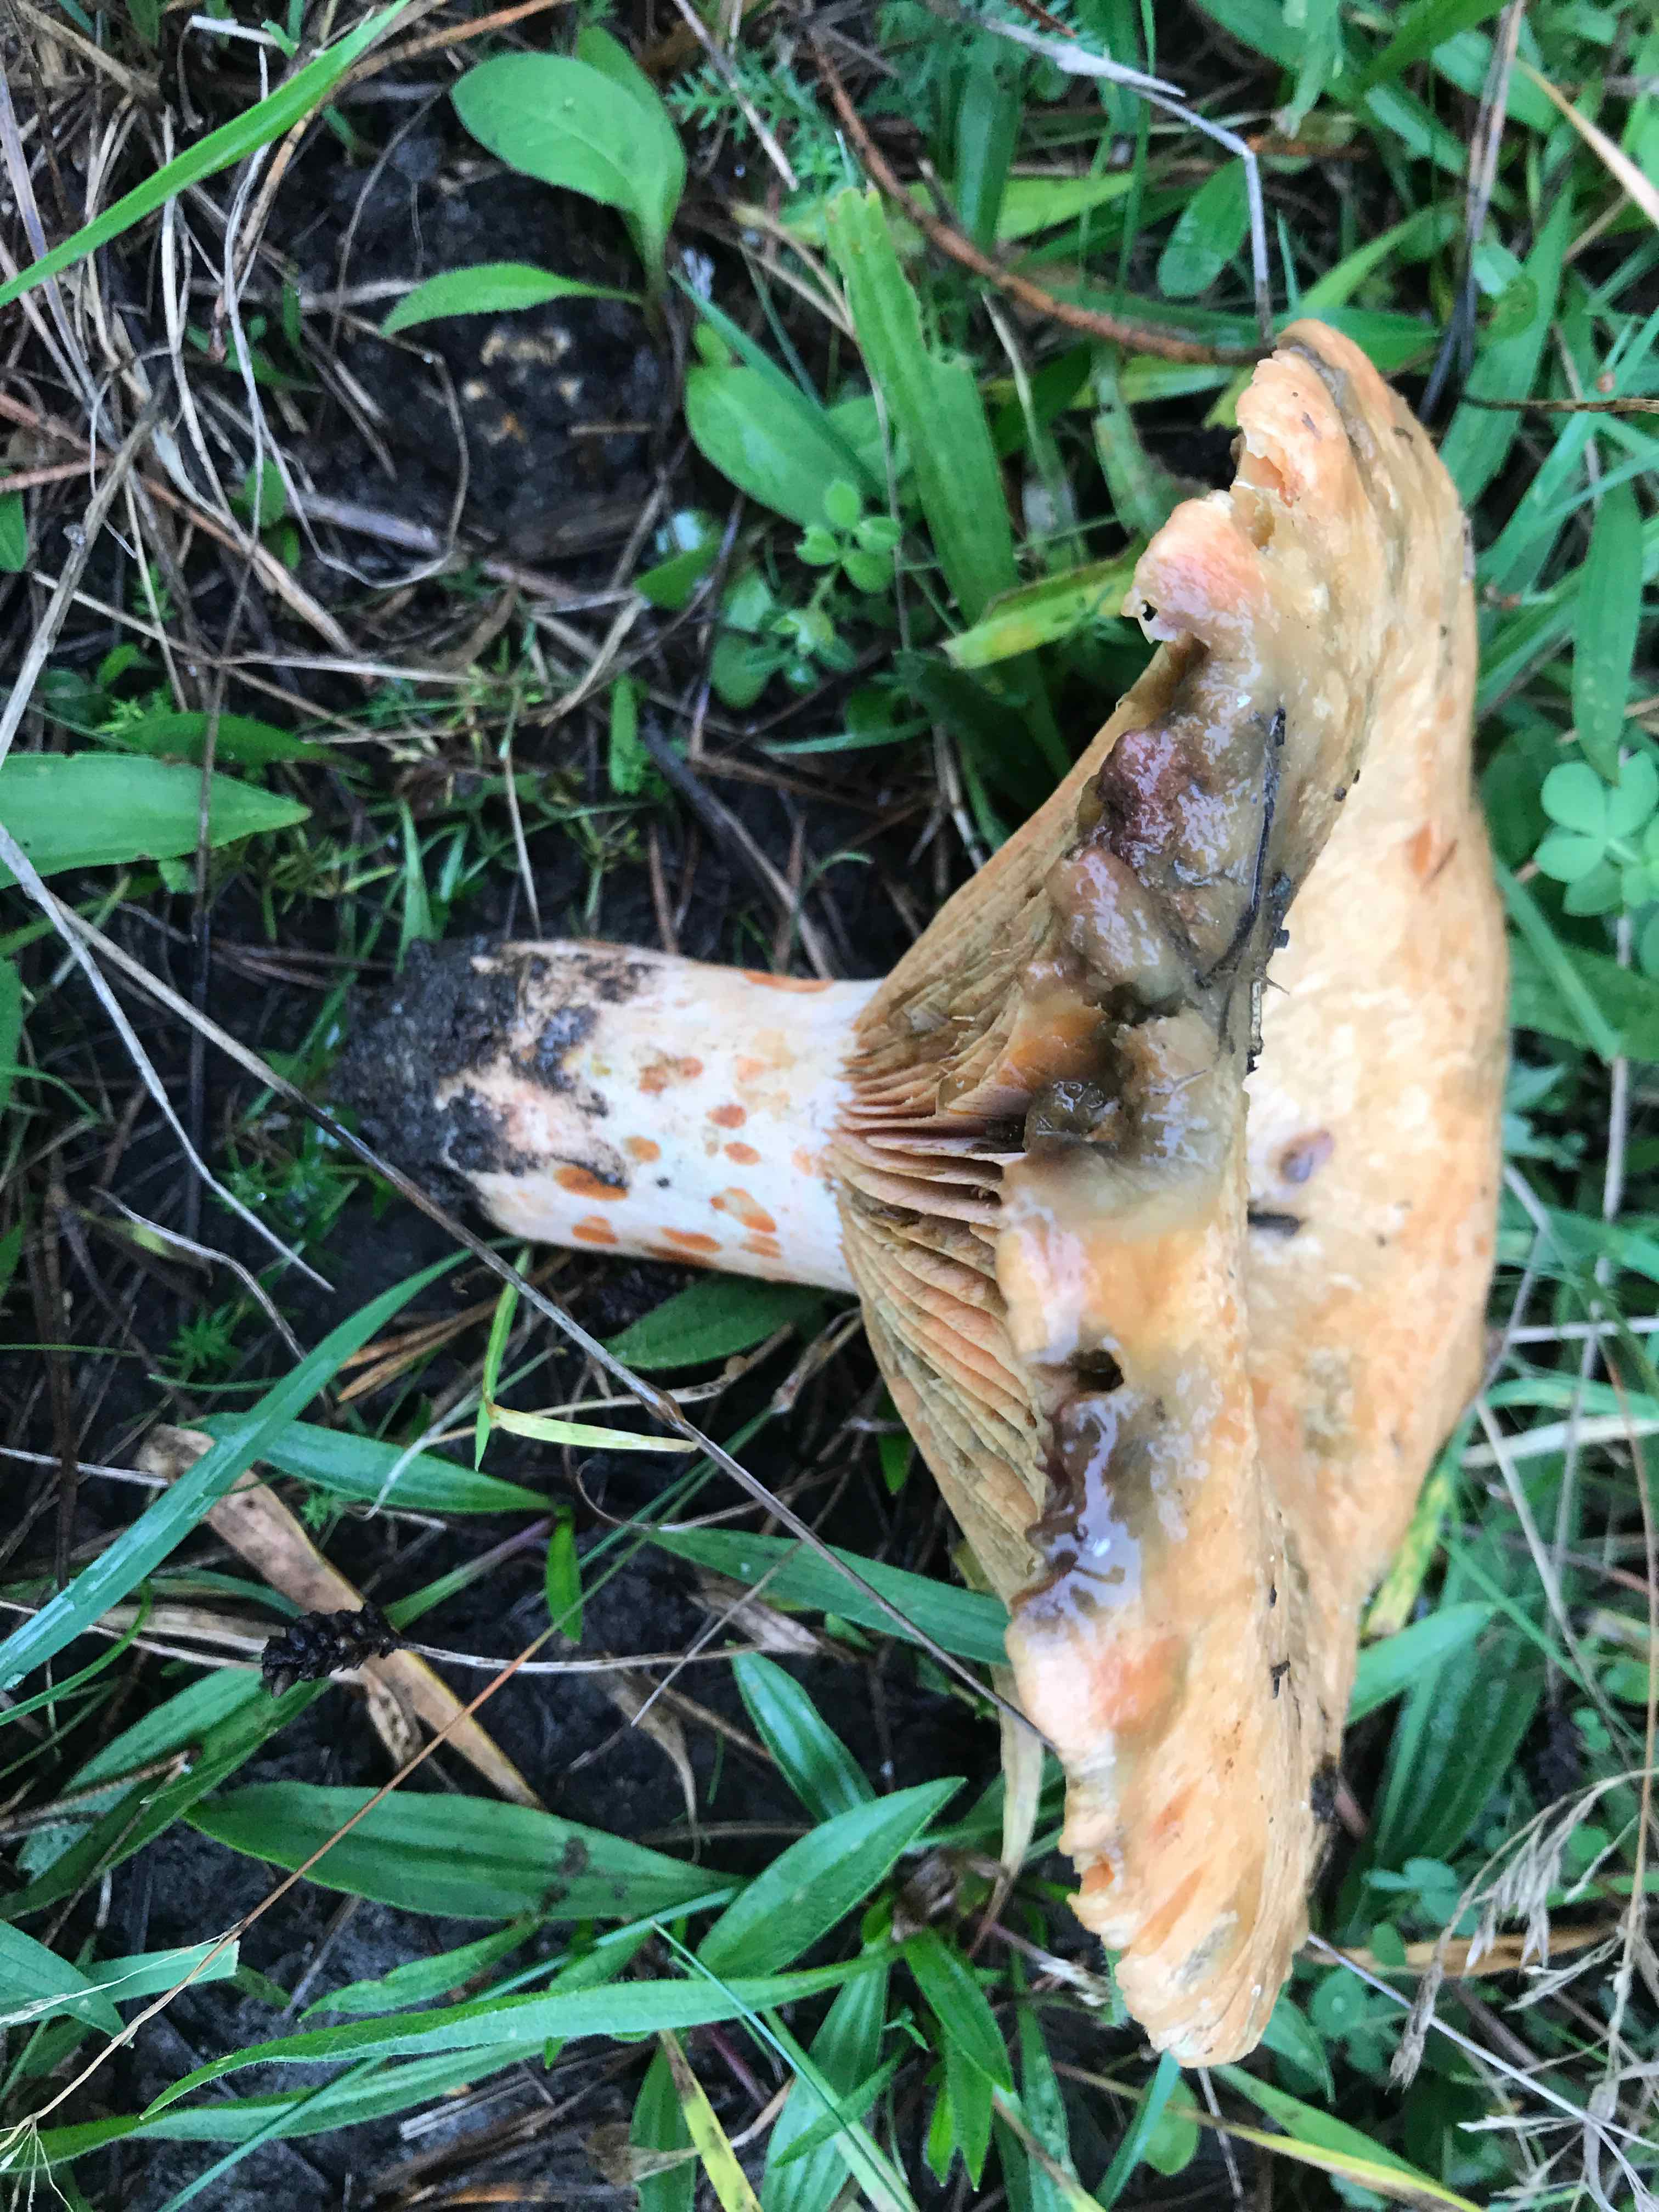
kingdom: Fungi
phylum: Basidiomycota
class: Agaricomycetes
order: Russulales
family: Russulaceae
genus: Lactarius
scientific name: Lactarius deliciosus
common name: velsmagende mælkehat
